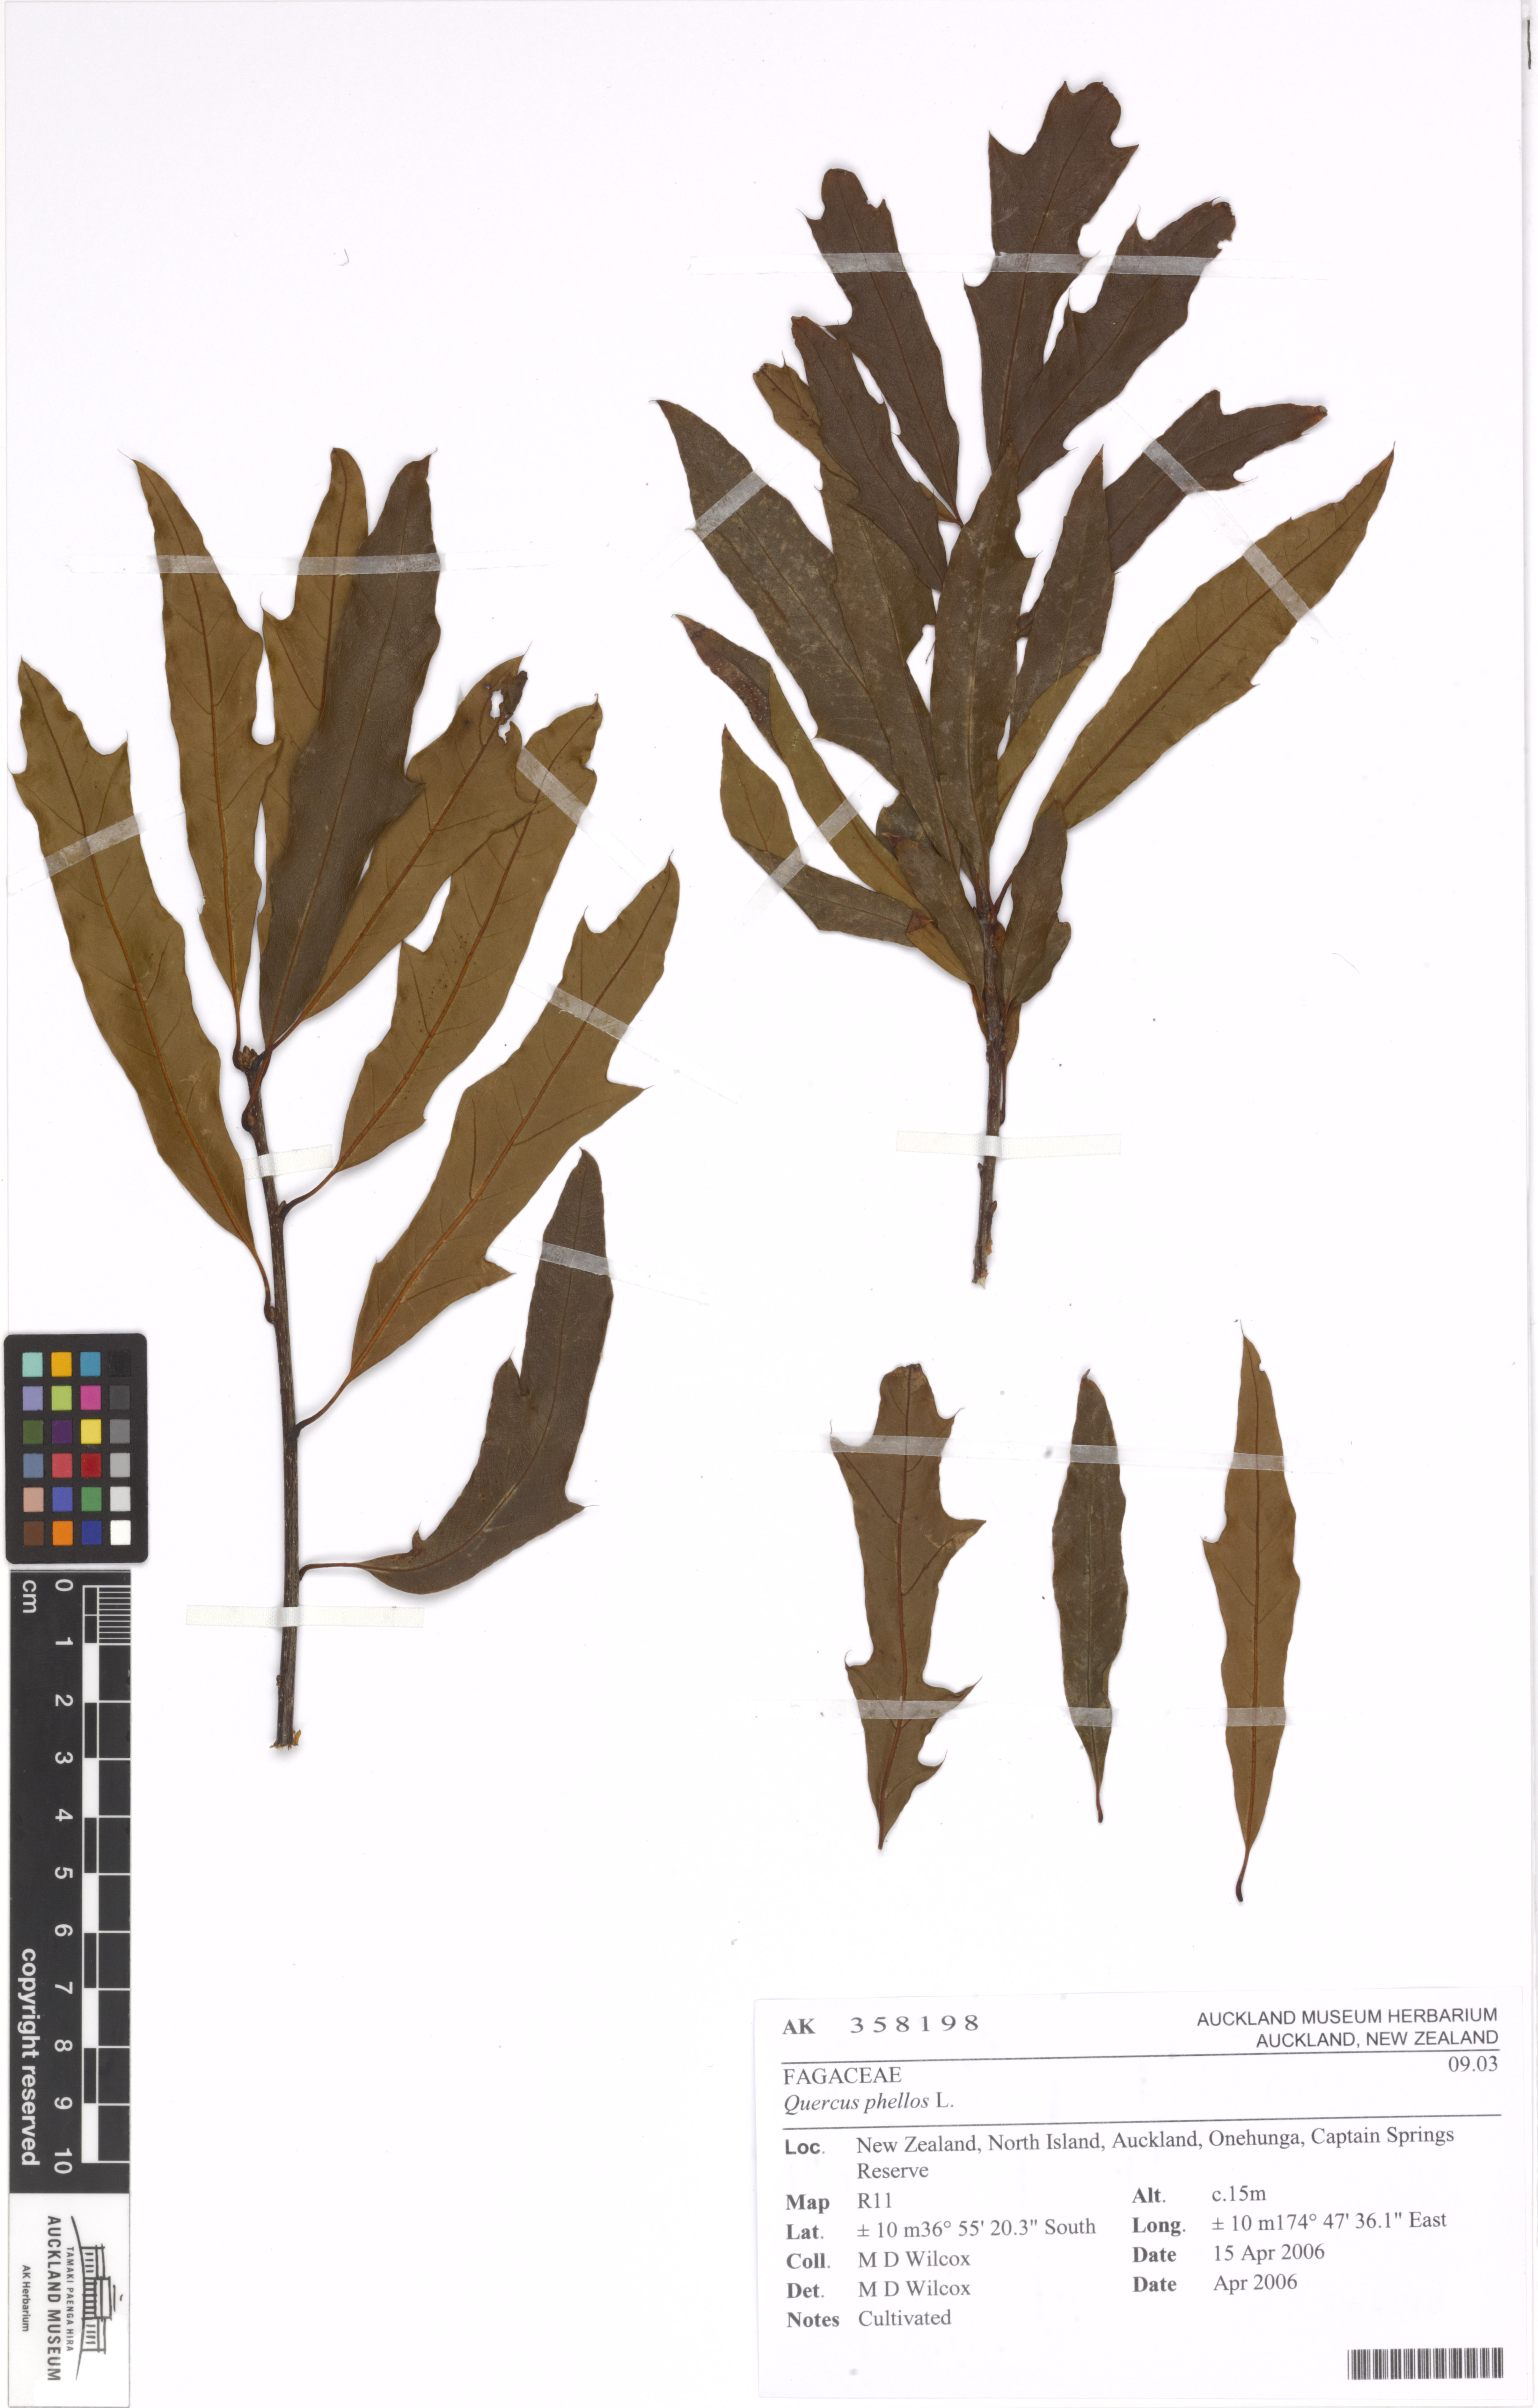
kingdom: Plantae
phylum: Tracheophyta
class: Magnoliopsida
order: Fagales
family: Fagaceae
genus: Quercus
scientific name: Quercus phellos
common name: Willow oak
